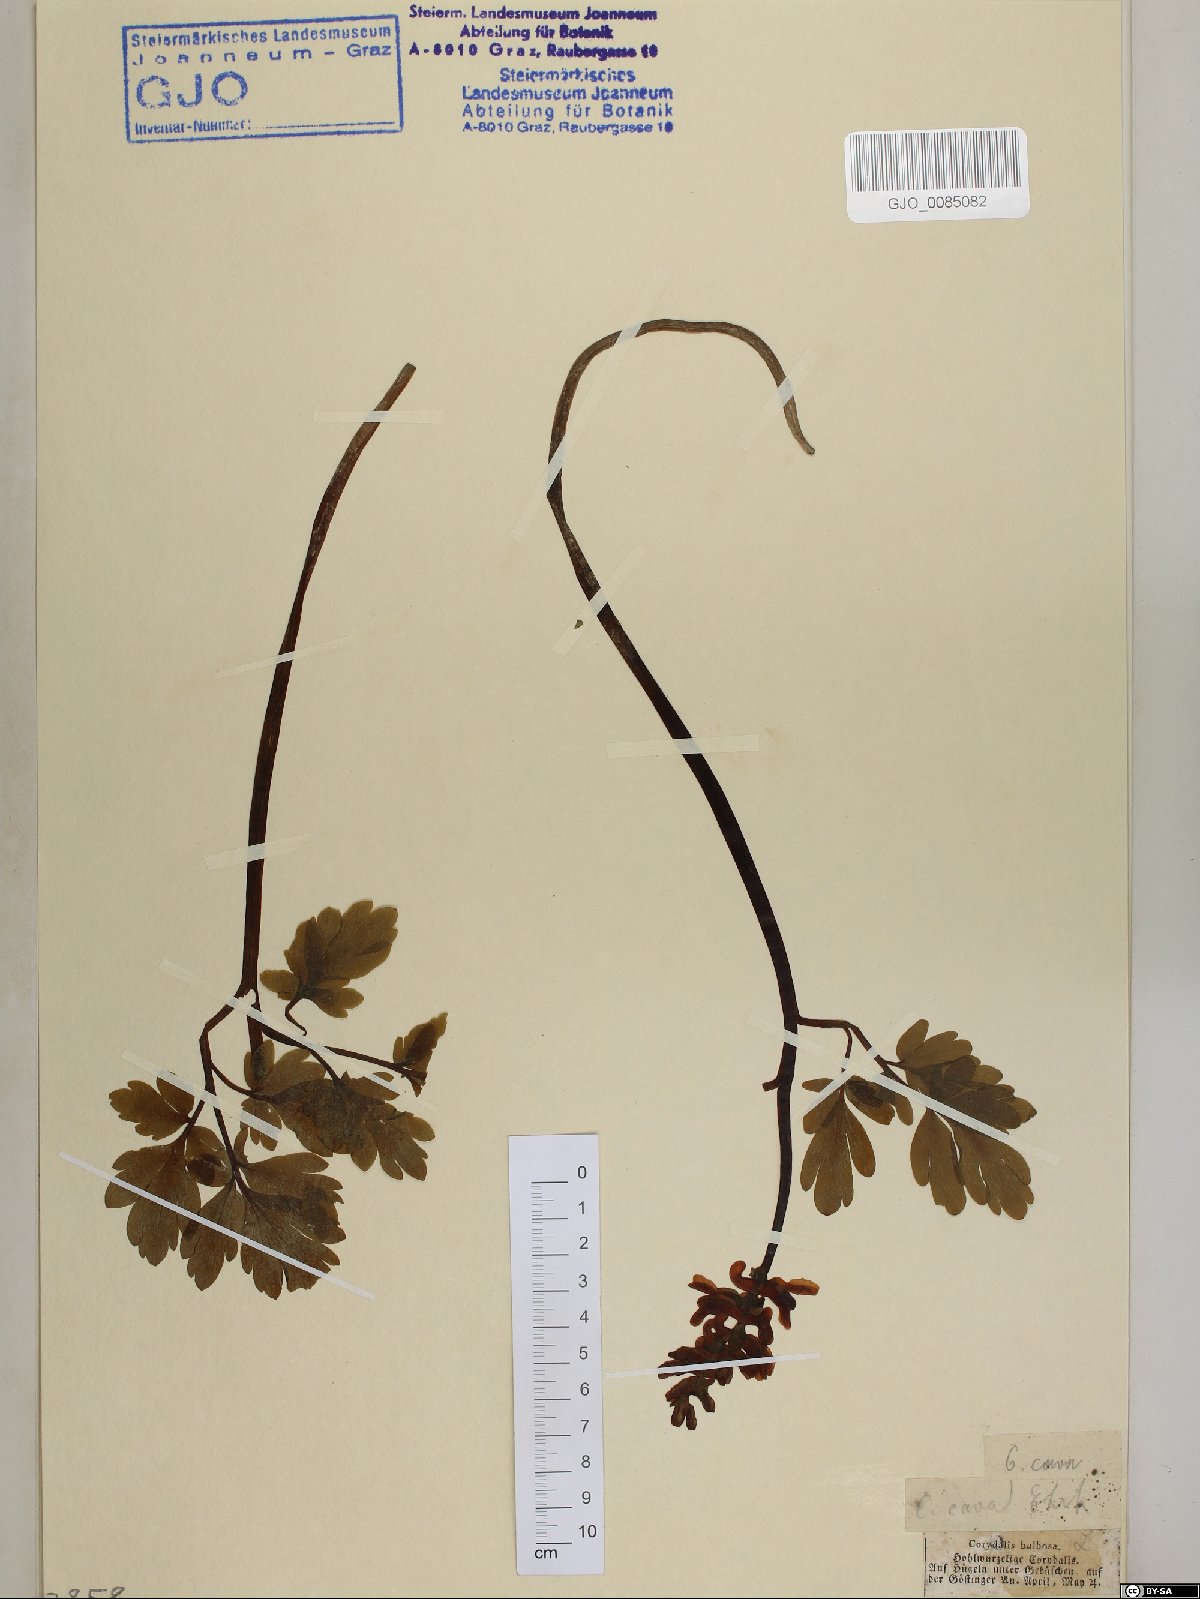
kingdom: Plantae
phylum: Tracheophyta
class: Magnoliopsida
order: Ranunculales
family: Papaveraceae
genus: Corydalis
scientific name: Corydalis cava
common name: Hollowroot
